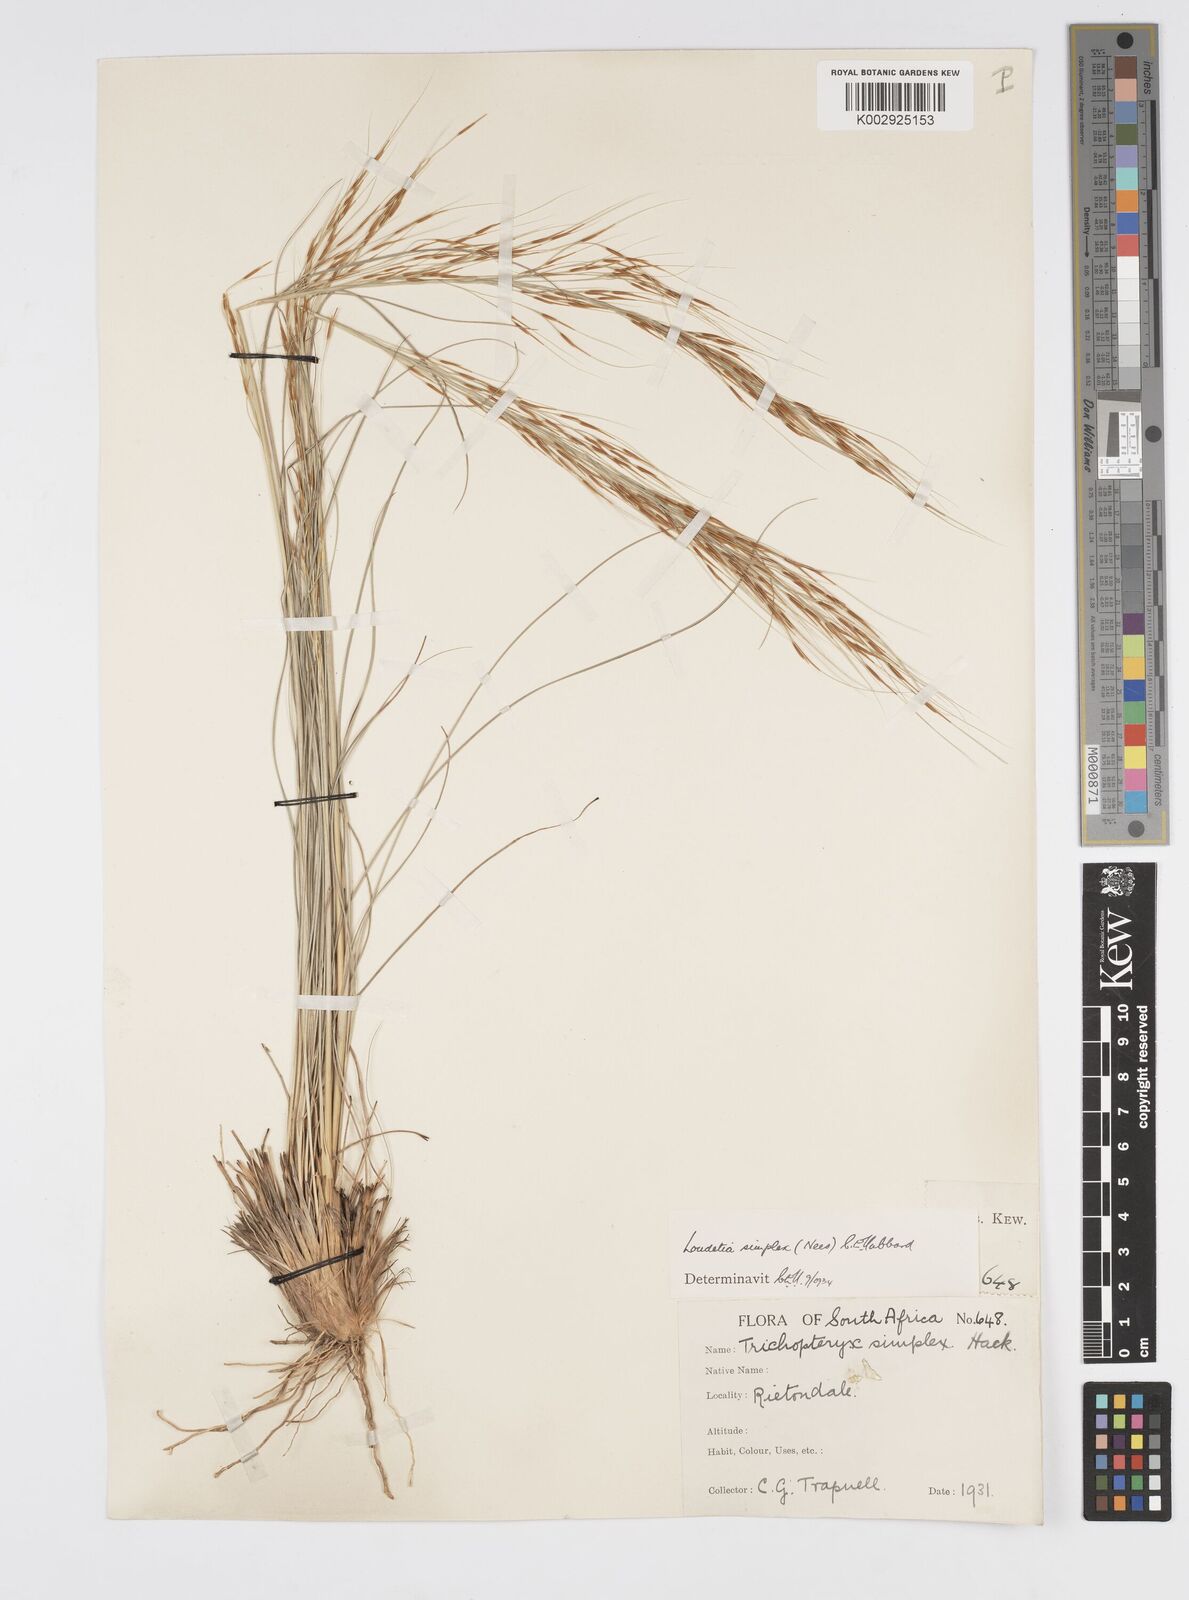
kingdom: Plantae
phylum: Tracheophyta
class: Liliopsida
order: Poales
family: Poaceae
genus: Loudetia
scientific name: Loudetia simplex
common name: Common russet grass
